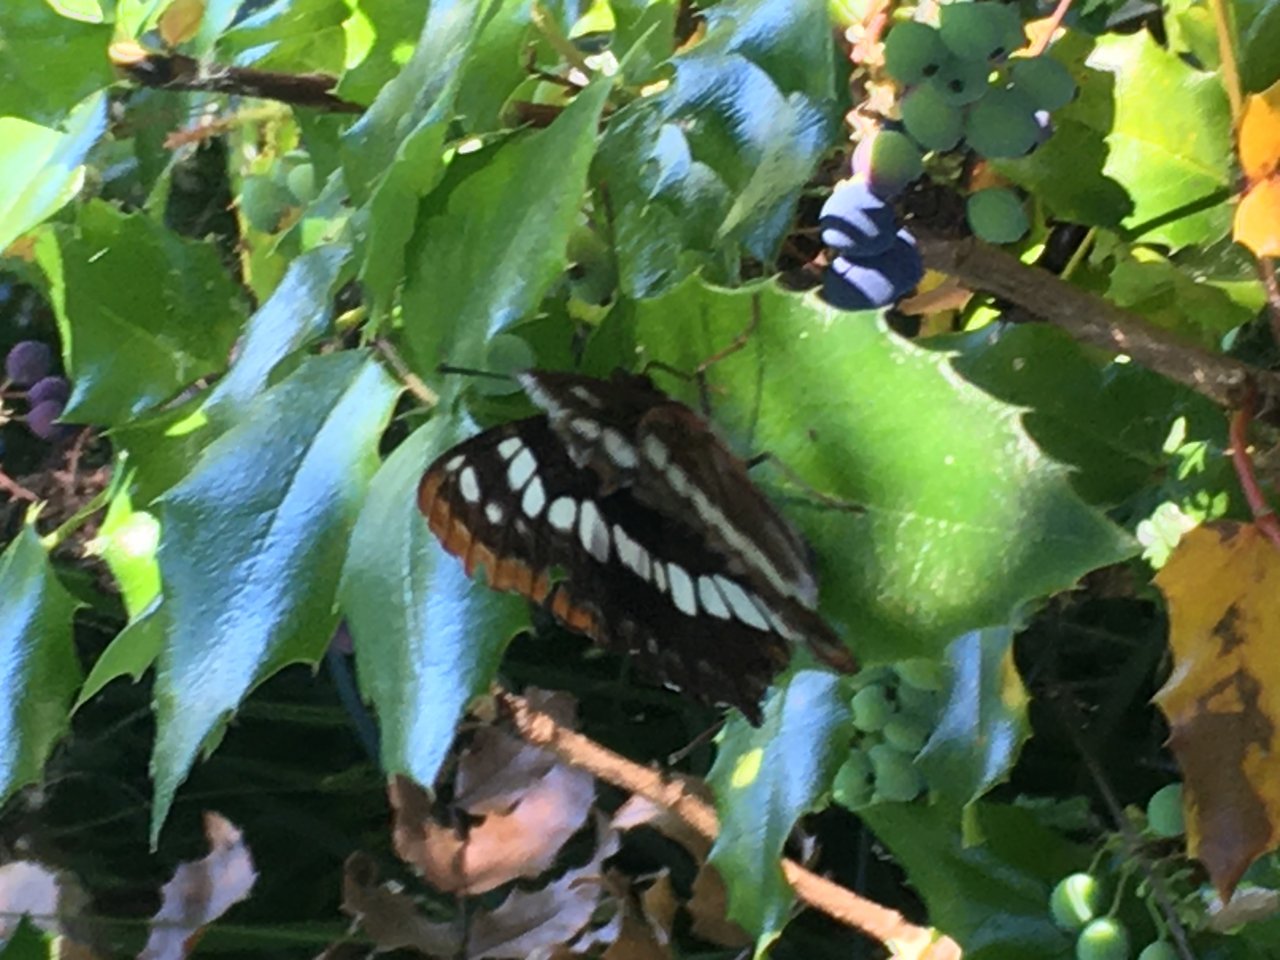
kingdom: Animalia
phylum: Arthropoda
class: Insecta
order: Lepidoptera
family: Nymphalidae
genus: Limenitis
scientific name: Limenitis lorquini
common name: Lorquin's Admiral
